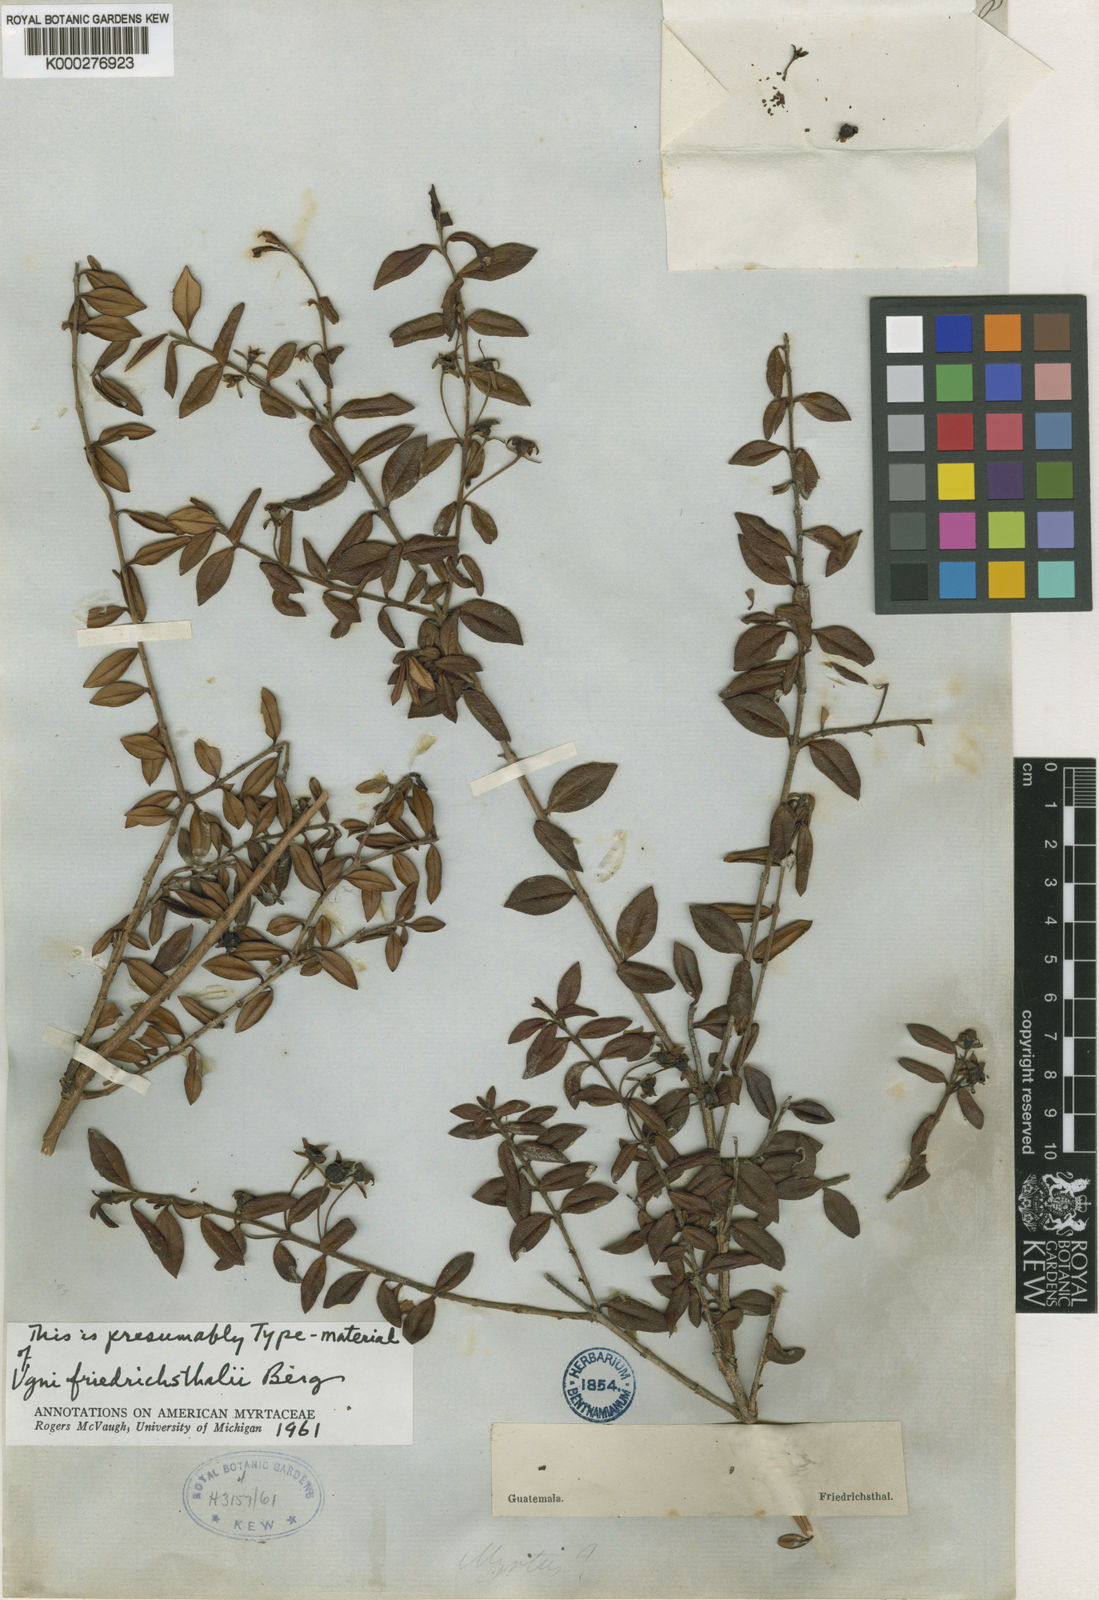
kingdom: Plantae
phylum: Tracheophyta
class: Magnoliopsida
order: Myrtales
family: Myrtaceae
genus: Ugni
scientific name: Ugni myricoides
